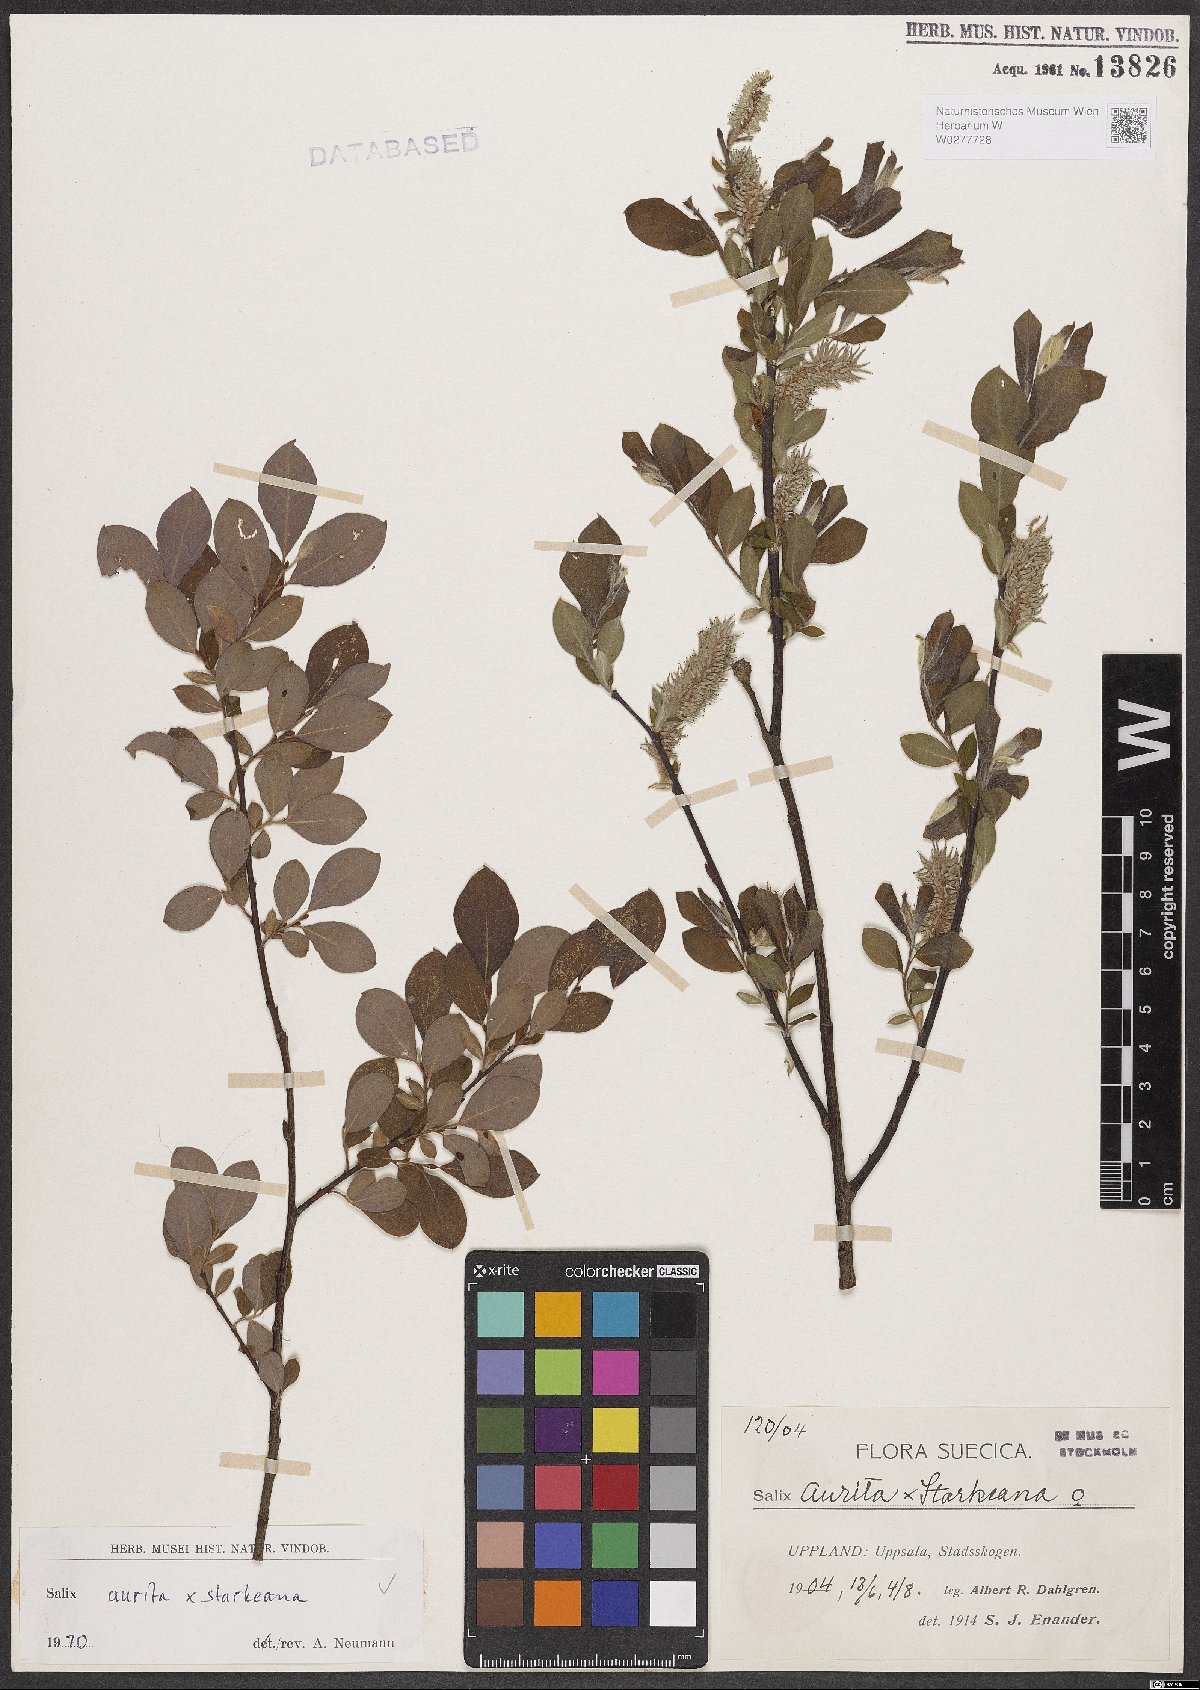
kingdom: Plantae
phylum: Tracheophyta
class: Magnoliopsida
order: Malpighiales
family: Salicaceae
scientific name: Salicaceae
